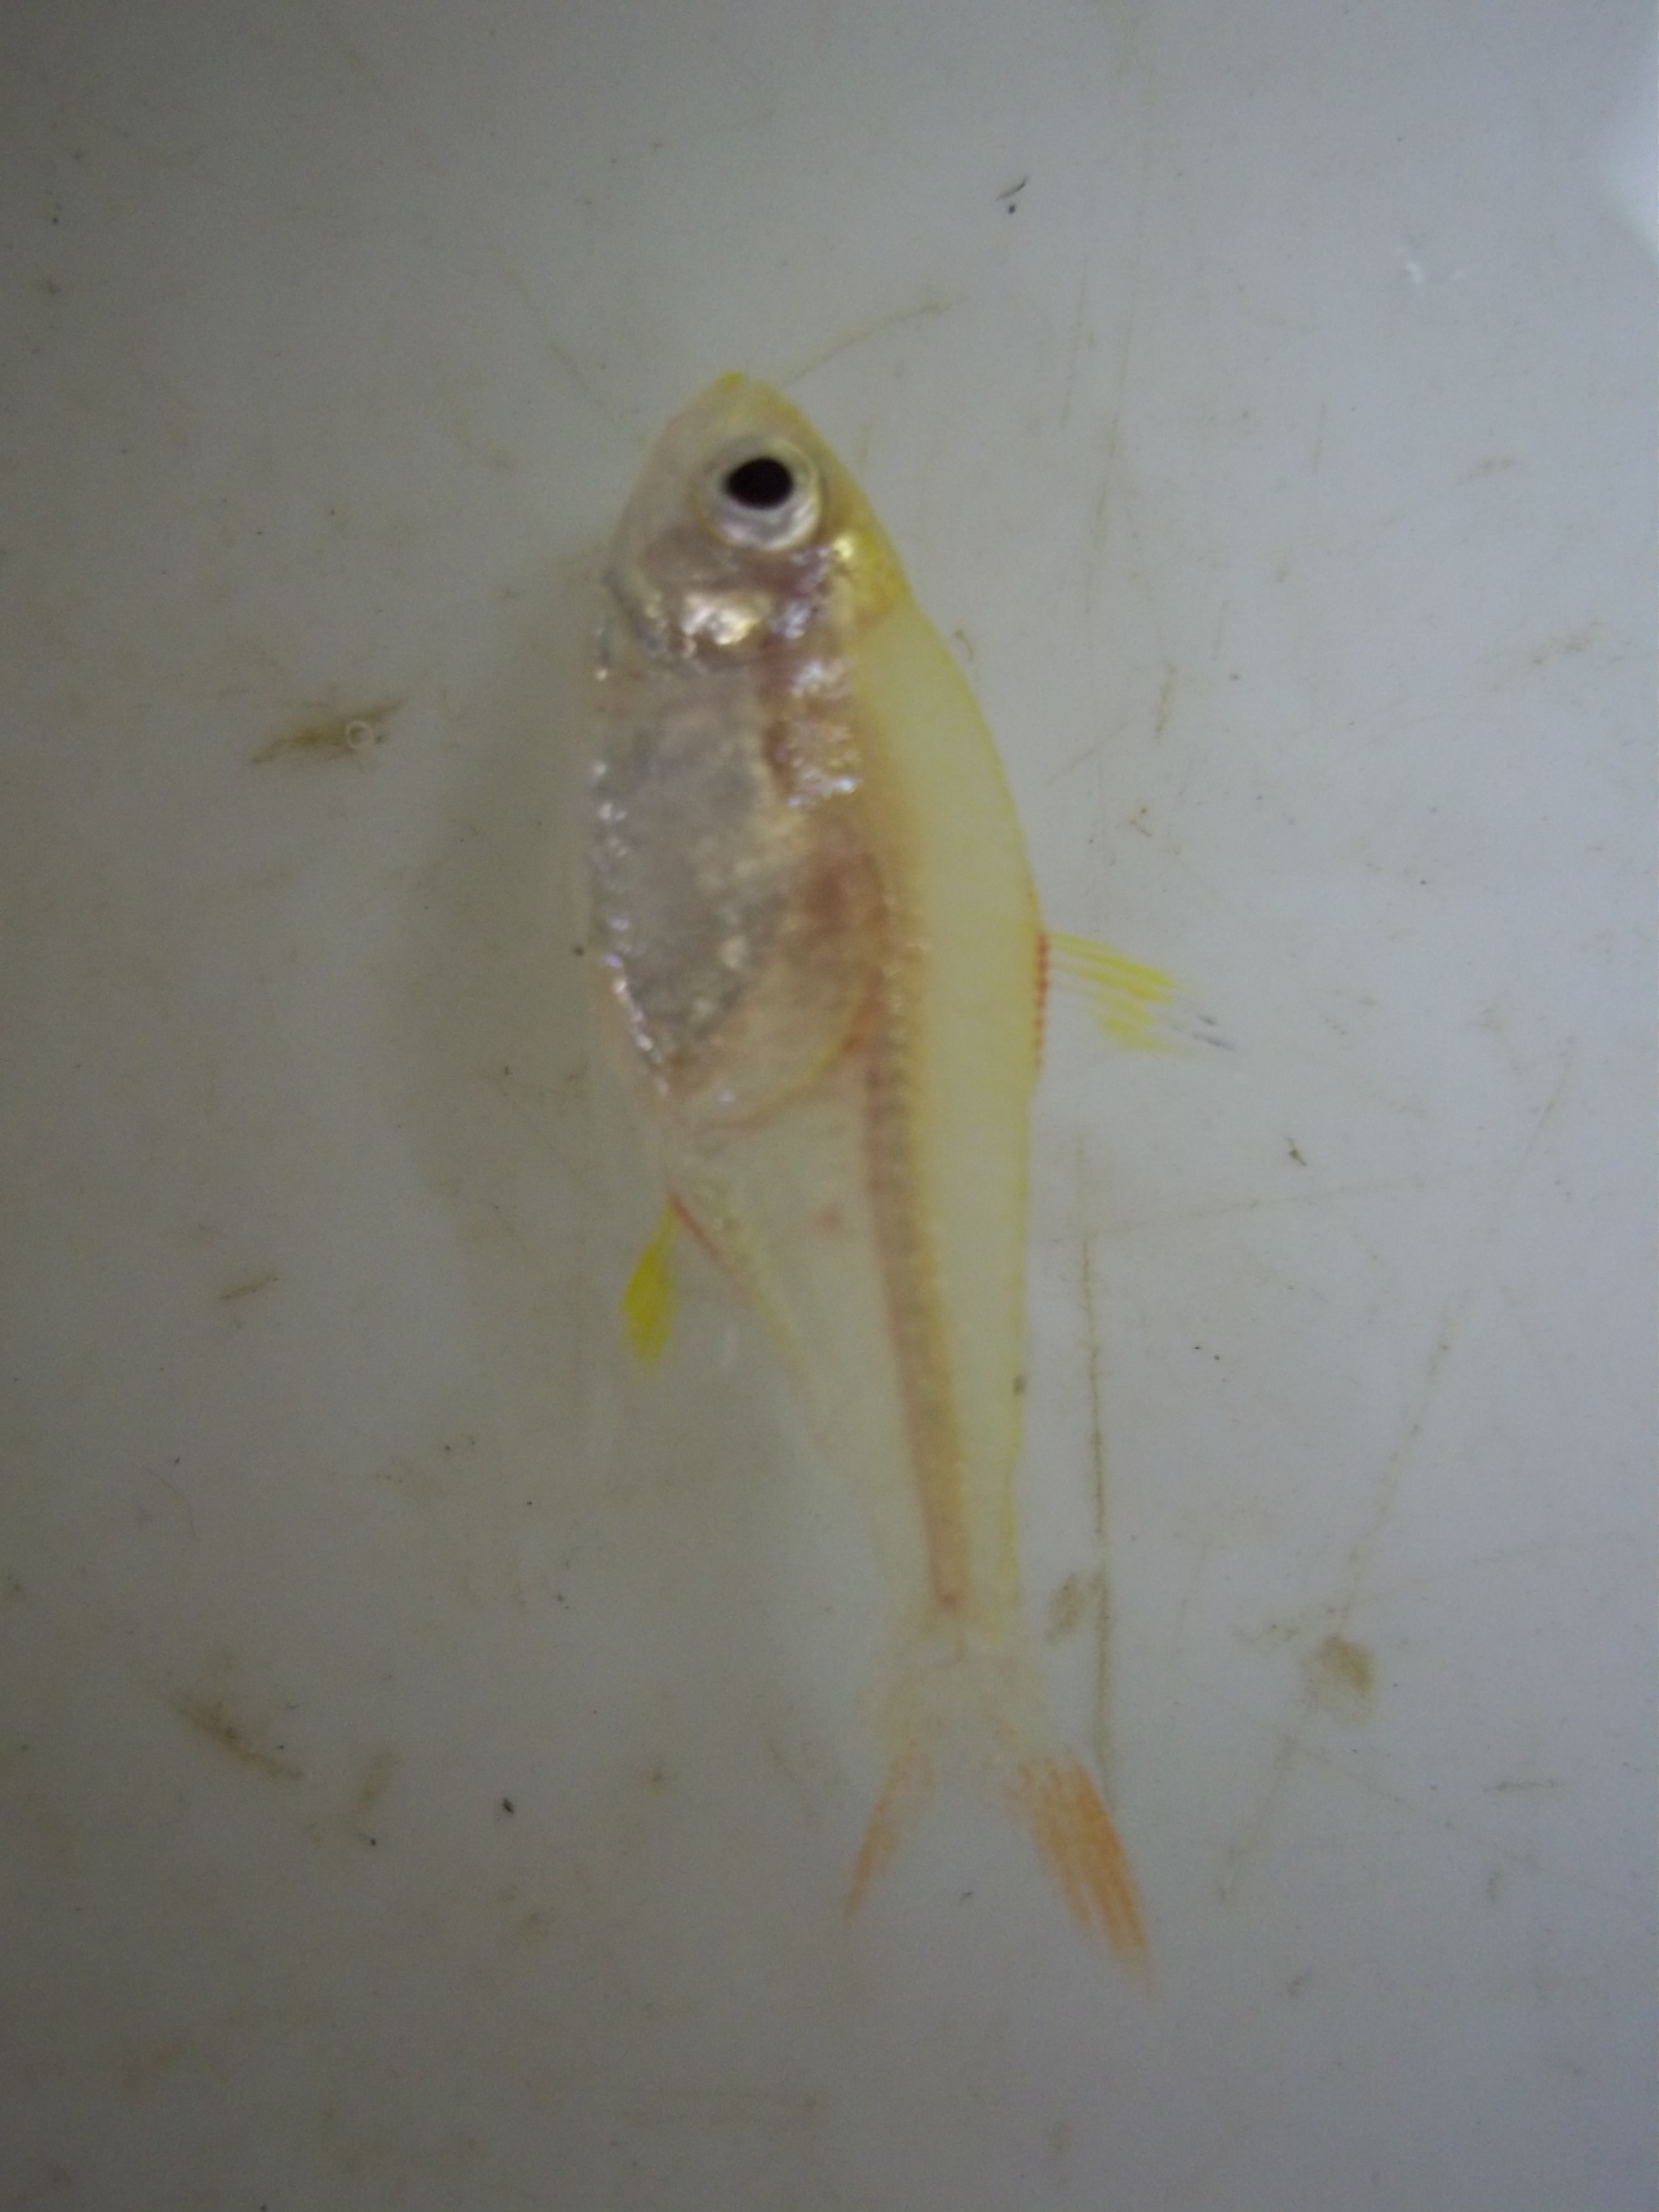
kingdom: Animalia
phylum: Chordata
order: Characiformes
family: Characidae
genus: Pristella
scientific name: Pristella maxillaris
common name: X-ray tetra
